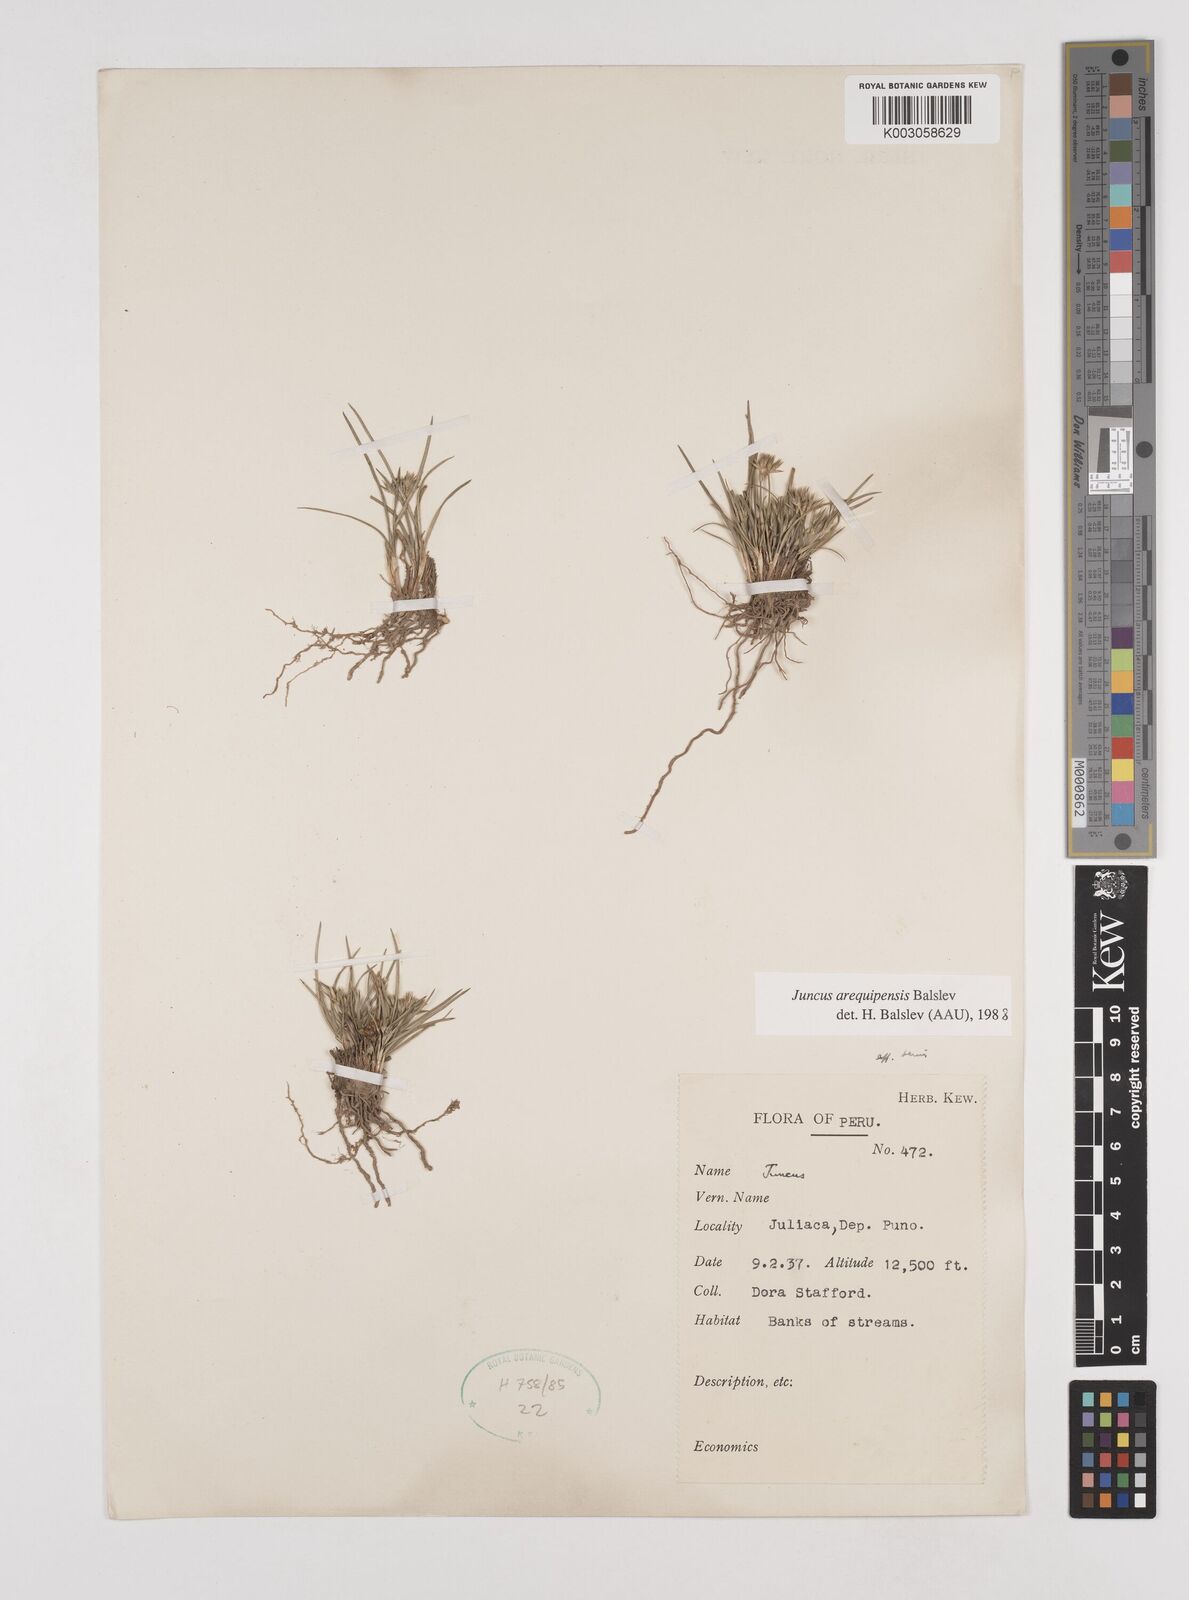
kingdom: Plantae
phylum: Tracheophyta
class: Liliopsida
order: Poales
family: Juncaceae
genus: Juncus
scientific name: Juncus cordobensis
